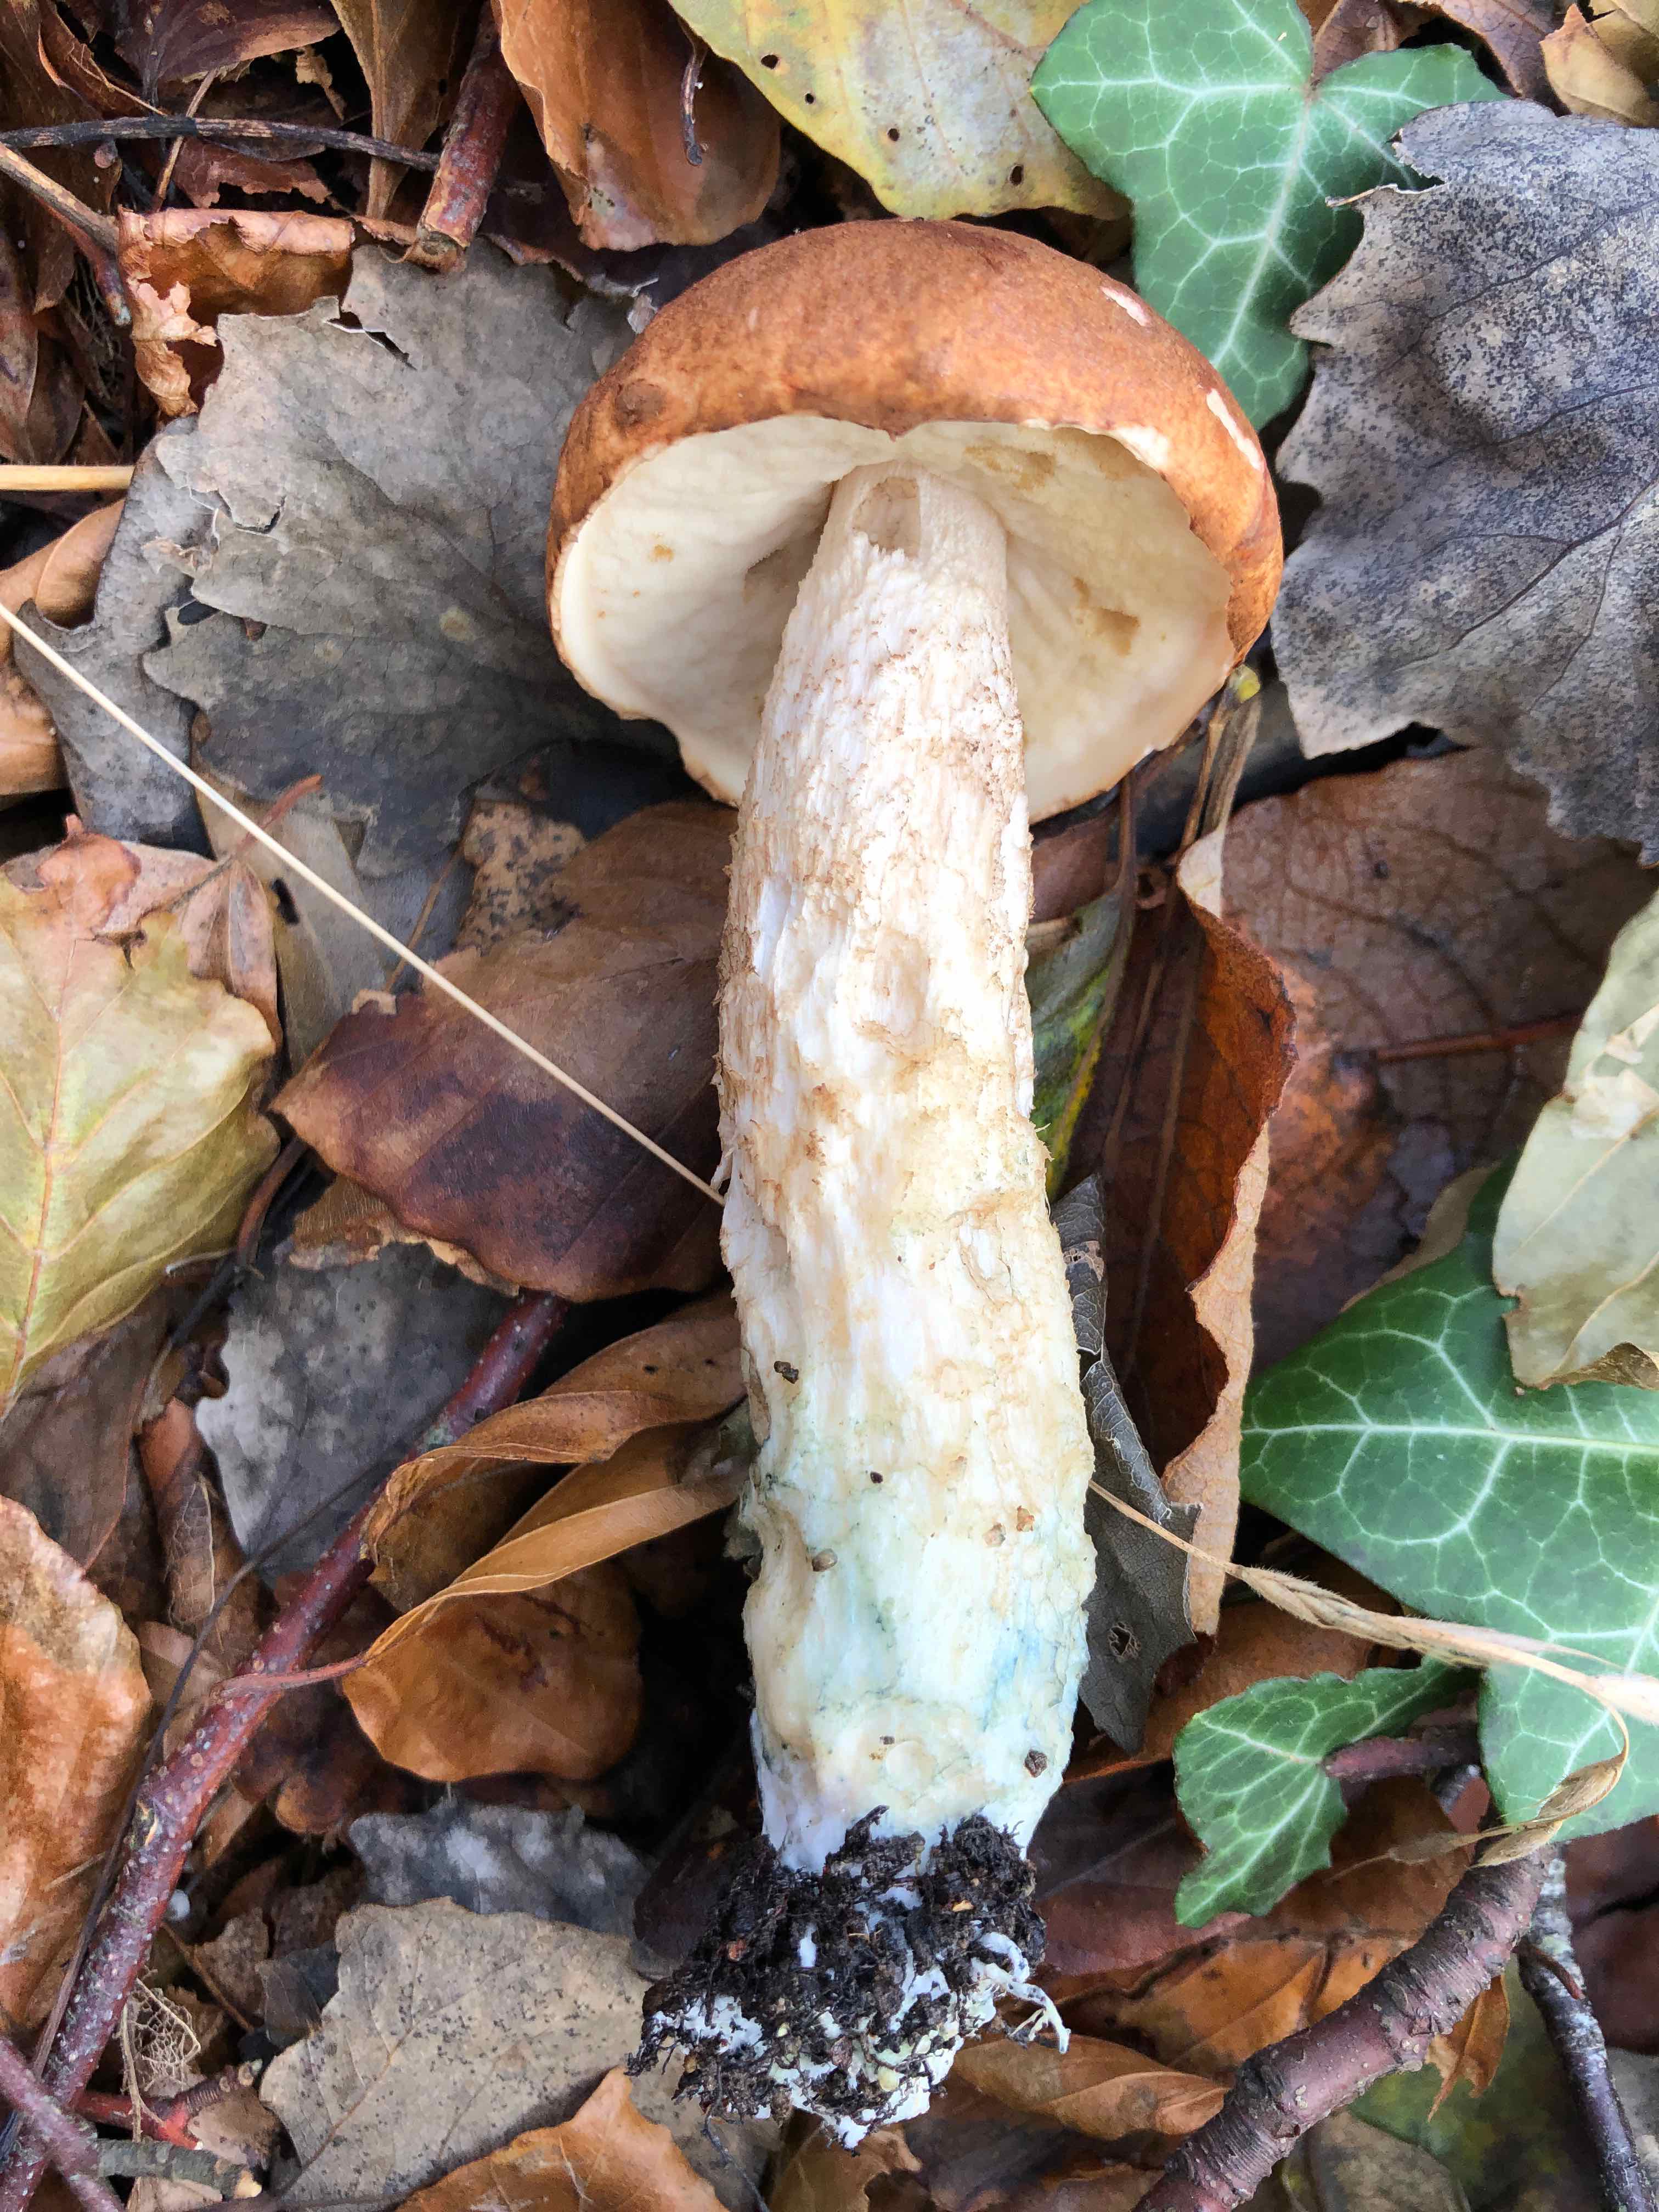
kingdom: Fungi
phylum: Basidiomycota
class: Agaricomycetes
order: Boletales
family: Boletaceae
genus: Leccinum
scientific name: Leccinum albostipitatum
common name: aspe-skælrørhat
